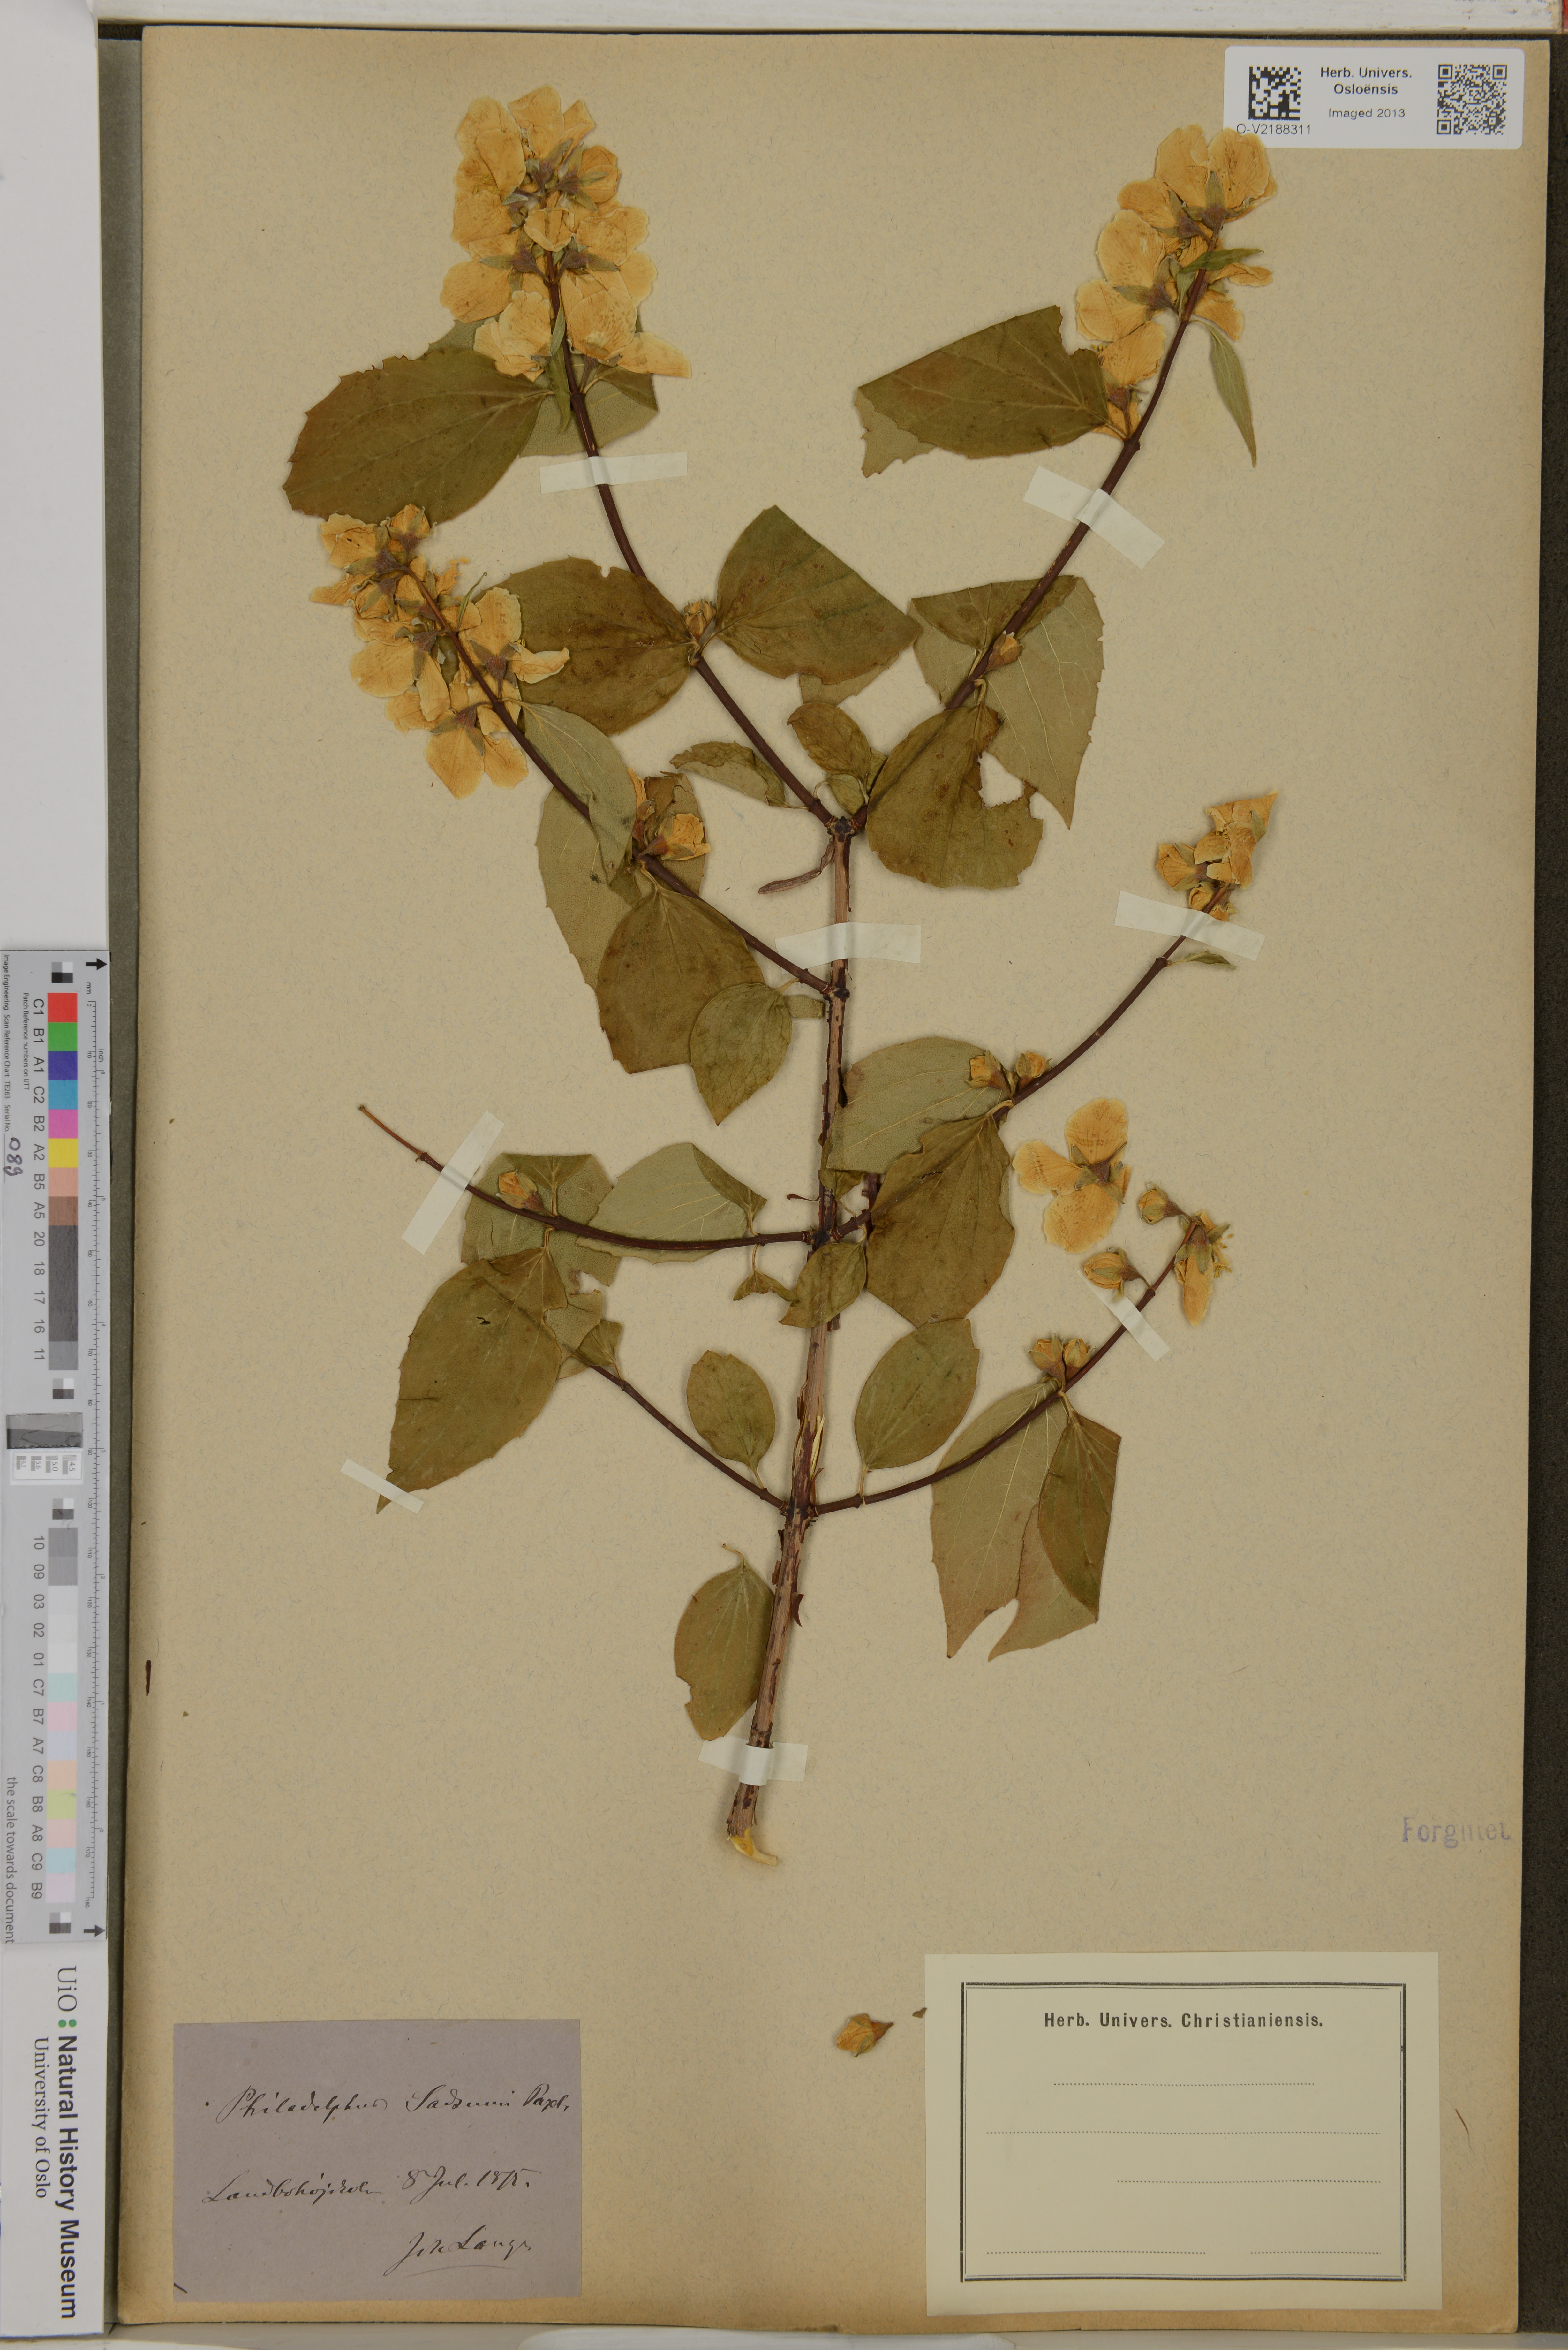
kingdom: Plantae
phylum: Tracheophyta
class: Magnoliopsida
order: Cornales
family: Hydrangeaceae
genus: Philadelphus
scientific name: Philadelphus
